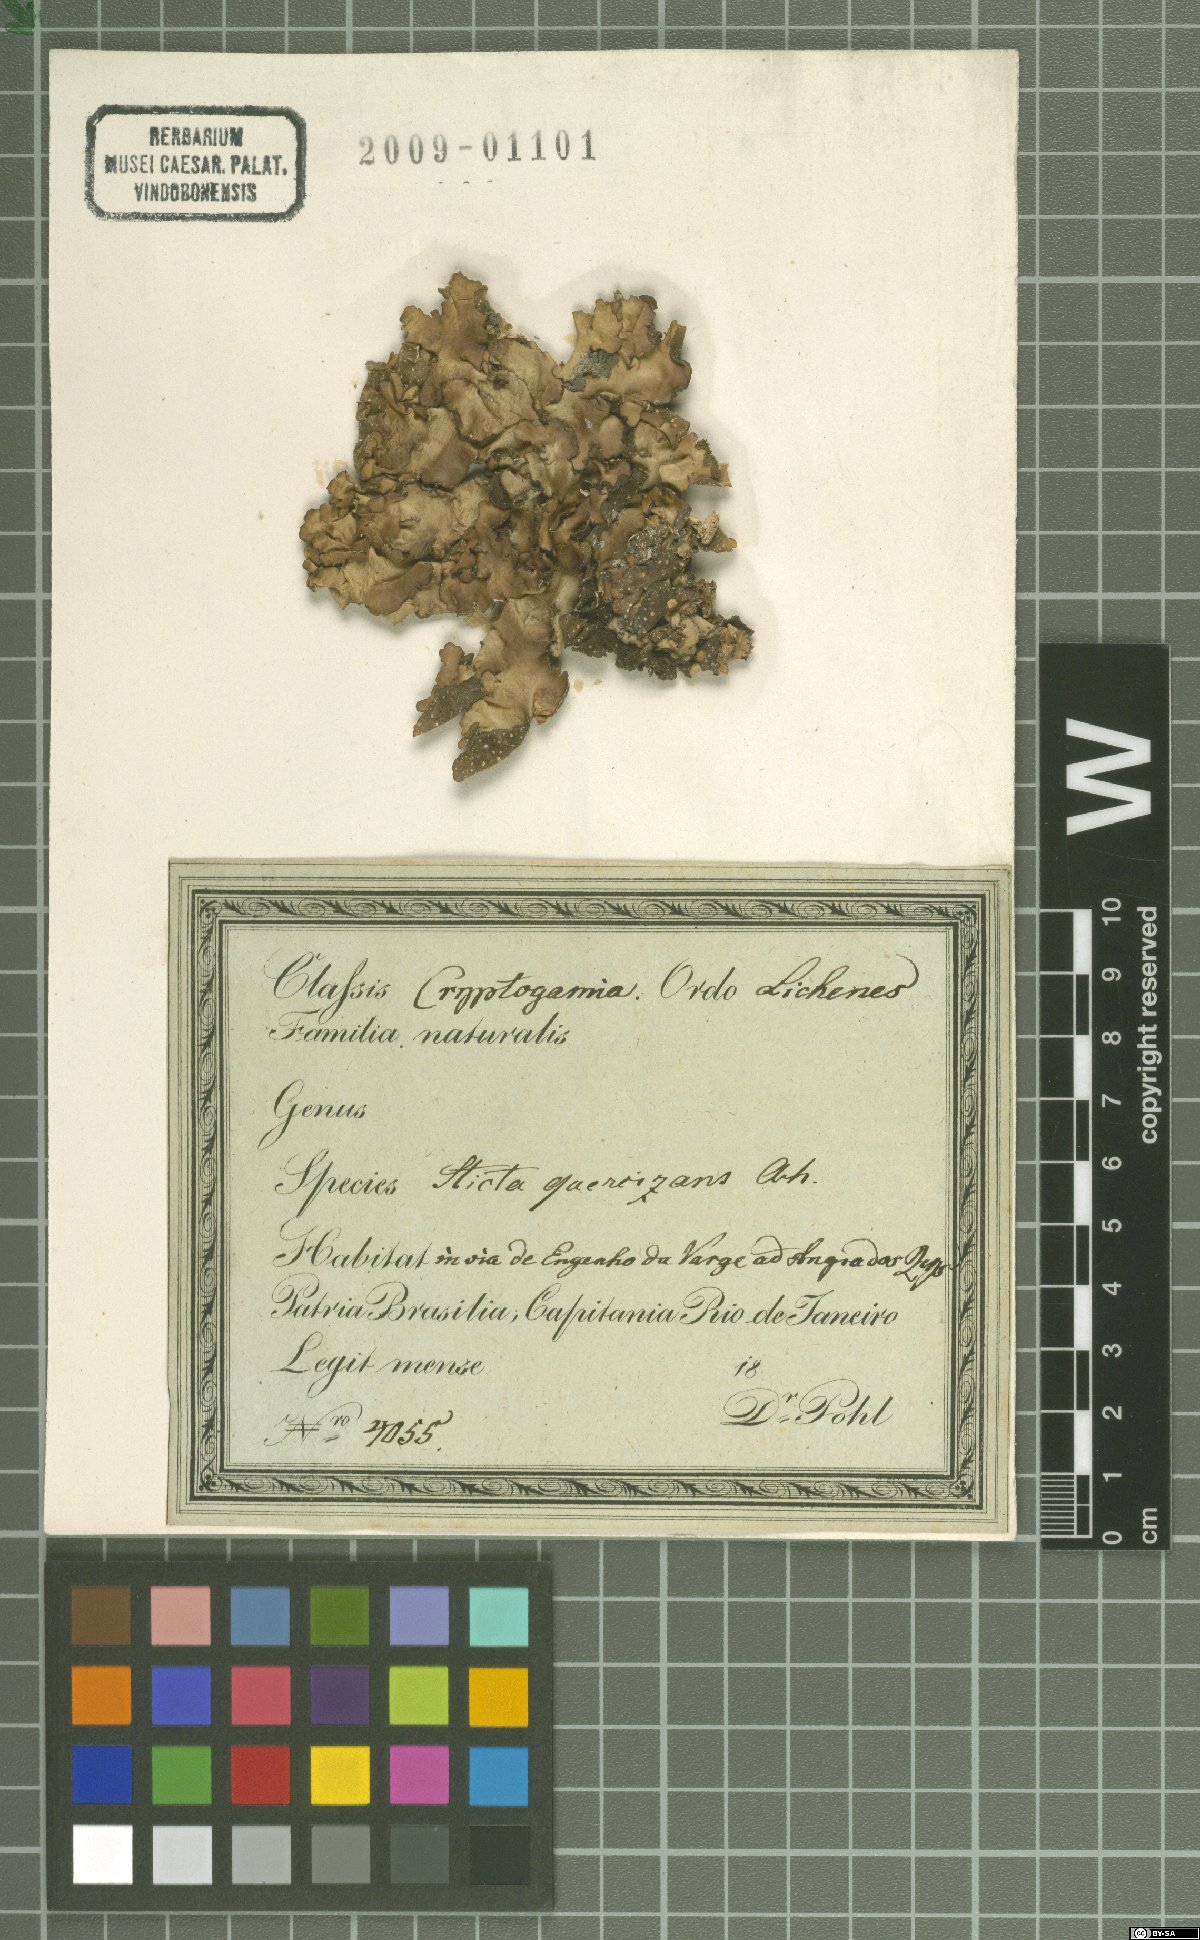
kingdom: Fungi
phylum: Ascomycota
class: Lecanoromycetes
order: Peltigerales
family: Lobariaceae
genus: Ricasolia
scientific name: Ricasolia quercizans
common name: Smooth lungwort
